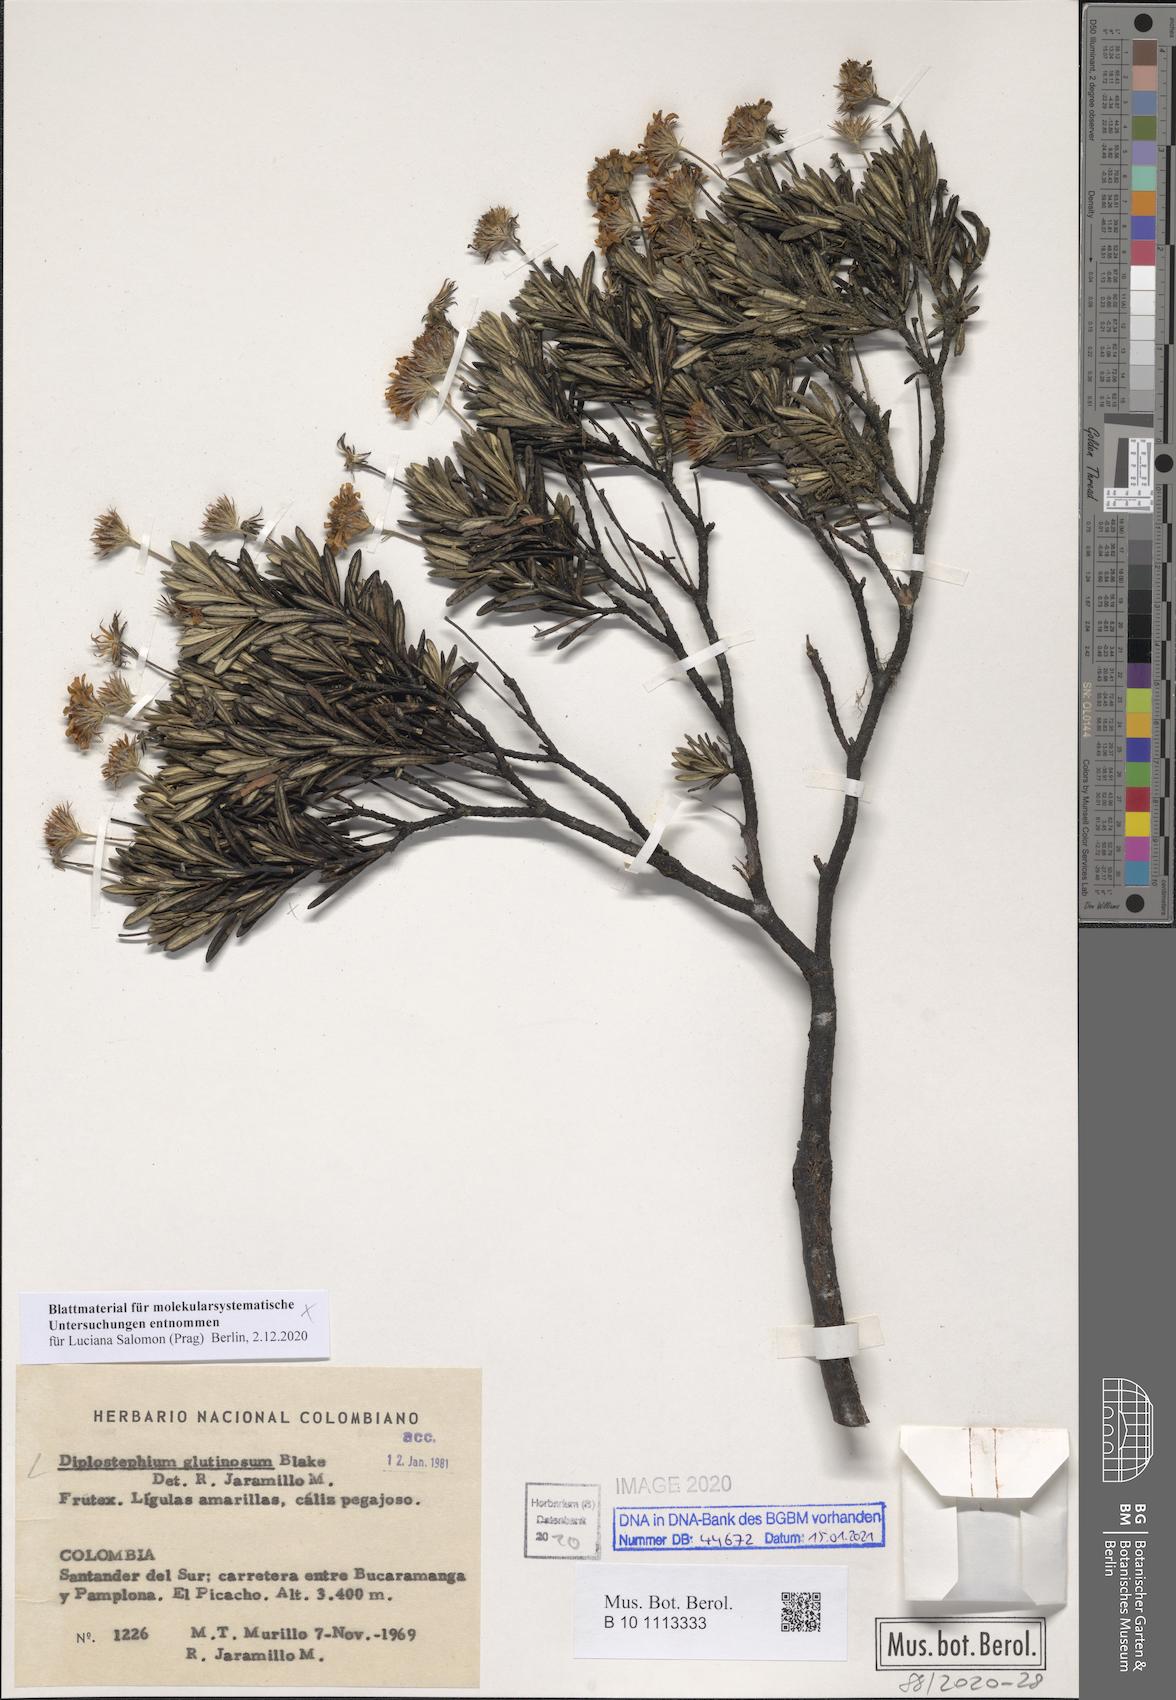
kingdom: Plantae
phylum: Tracheophyta
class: Magnoliopsida
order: Asterales
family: Asteraceae
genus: Linochilus
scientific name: Linochilus glutinosus
